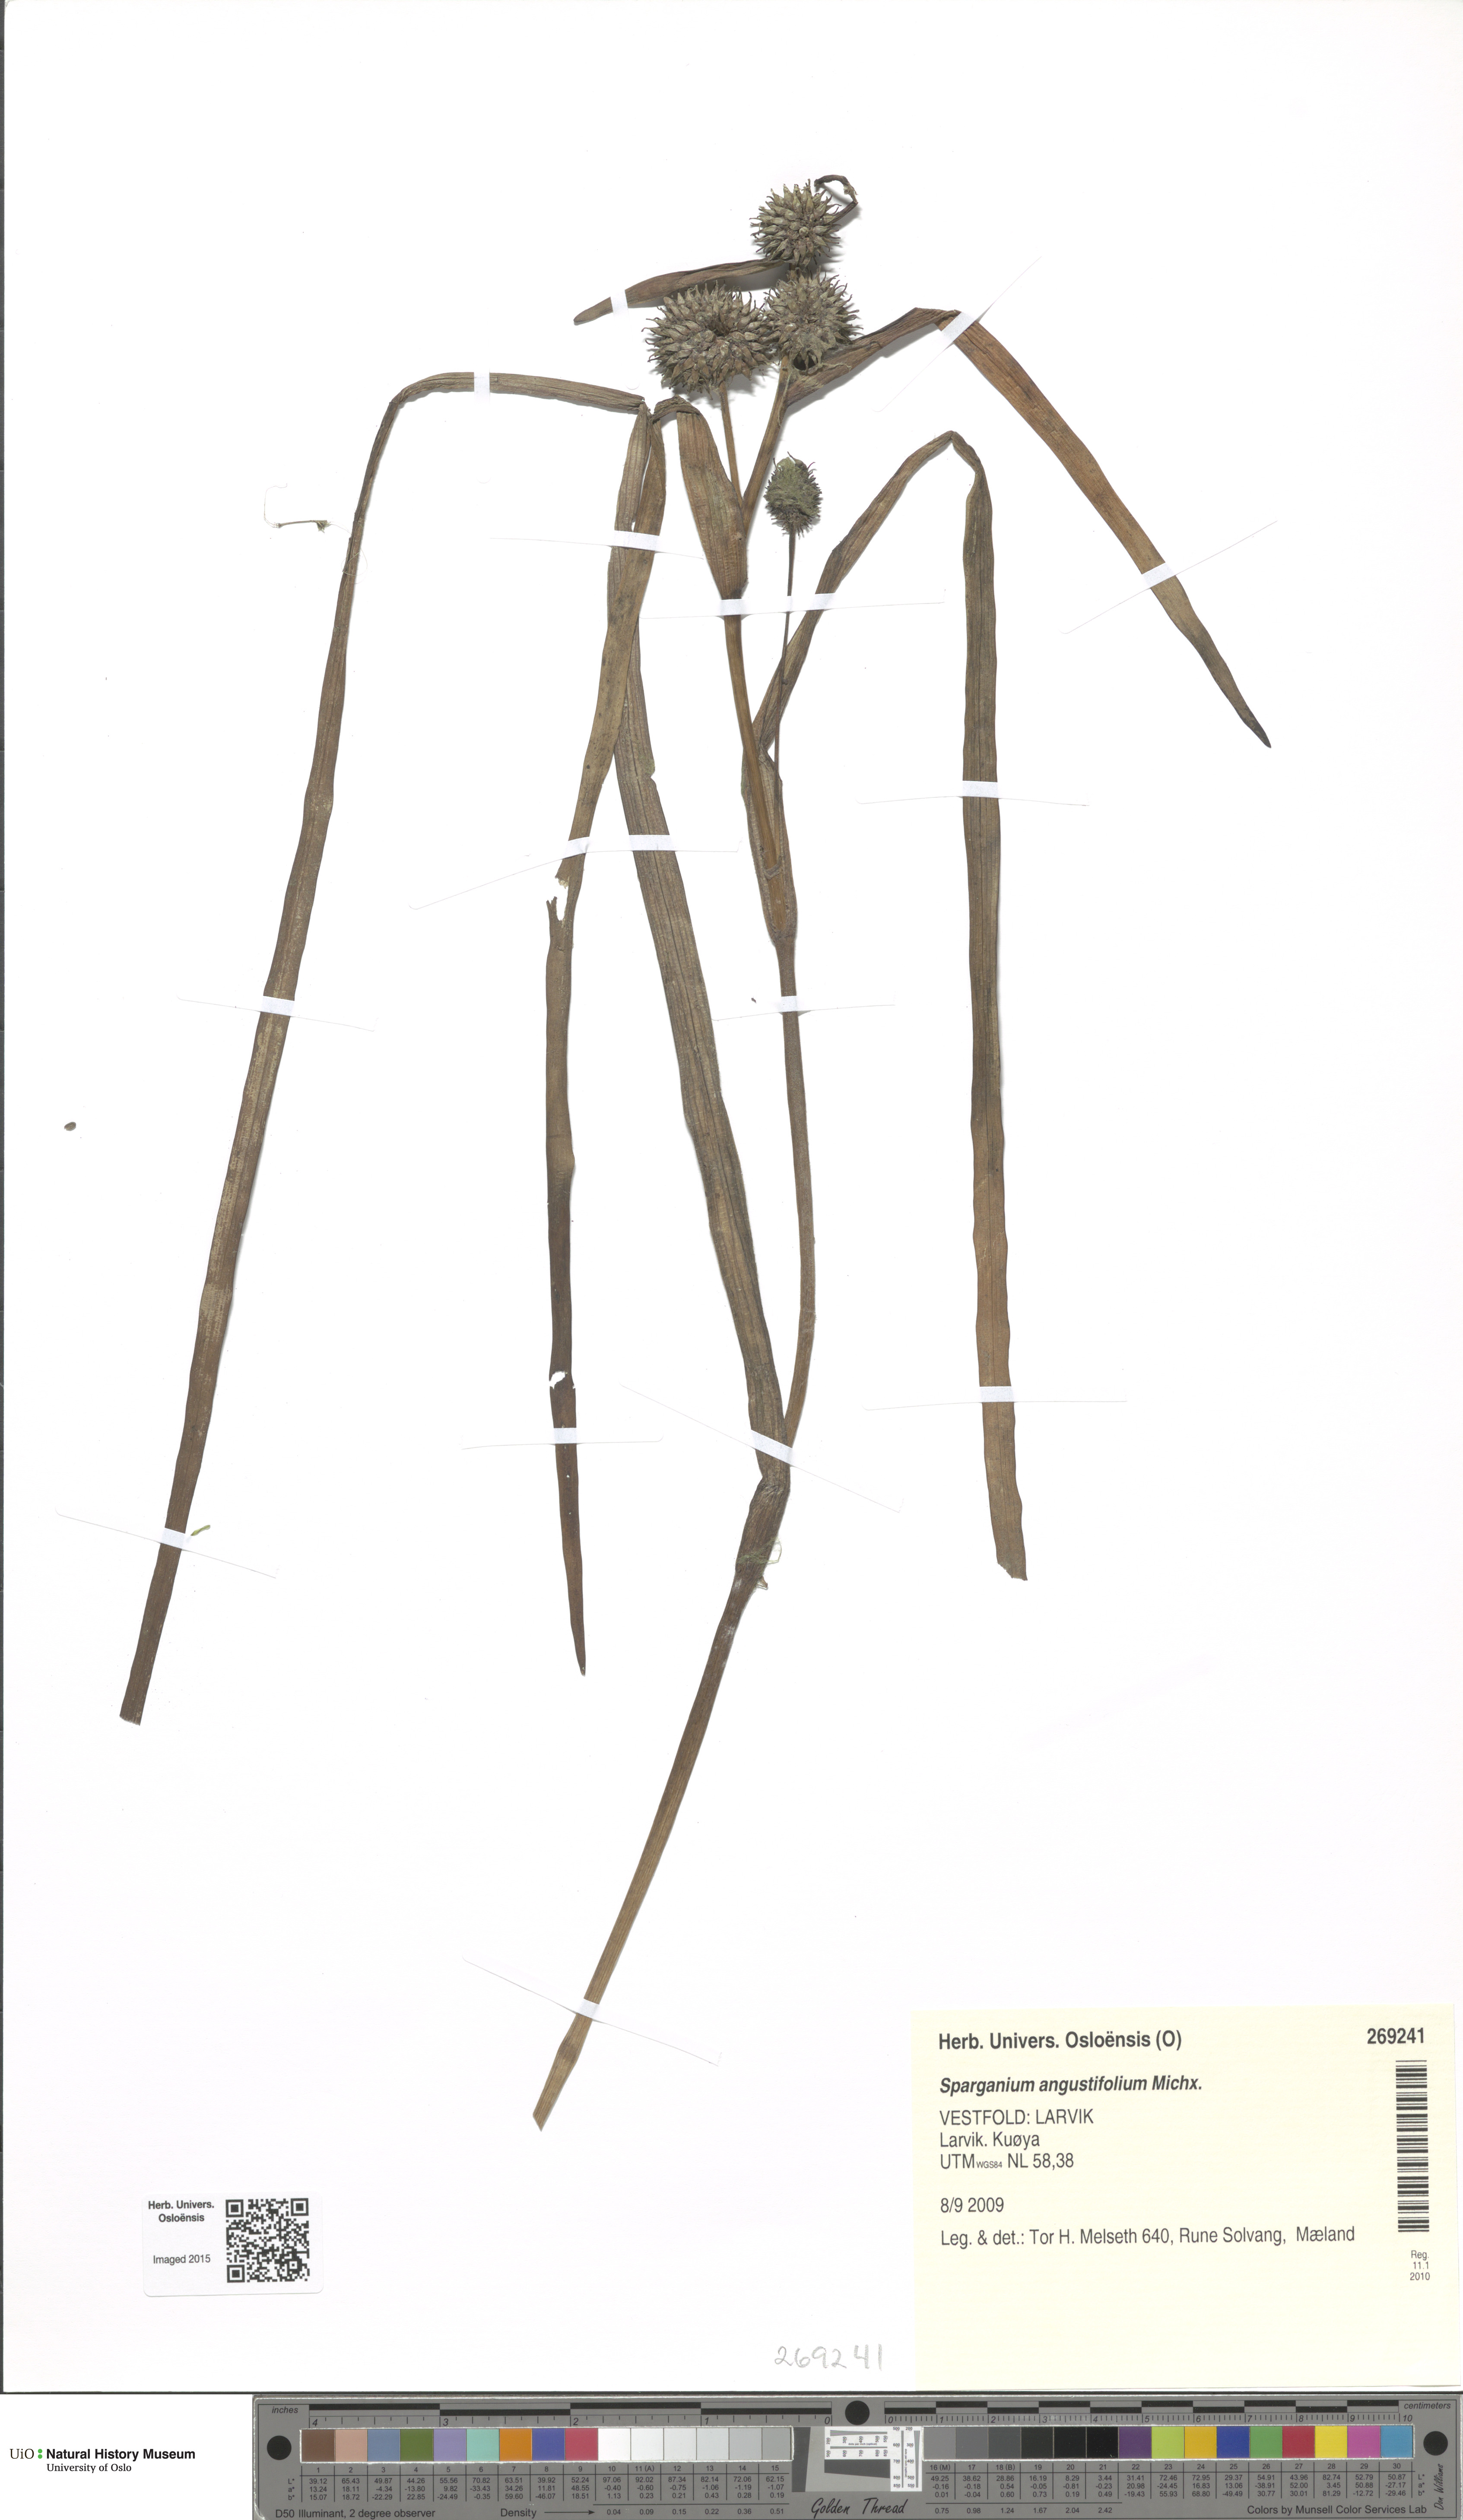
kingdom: Plantae
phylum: Tracheophyta
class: Liliopsida
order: Poales
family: Typhaceae
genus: Sparganium
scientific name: Sparganium angustifolium
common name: Floating bur-reed
